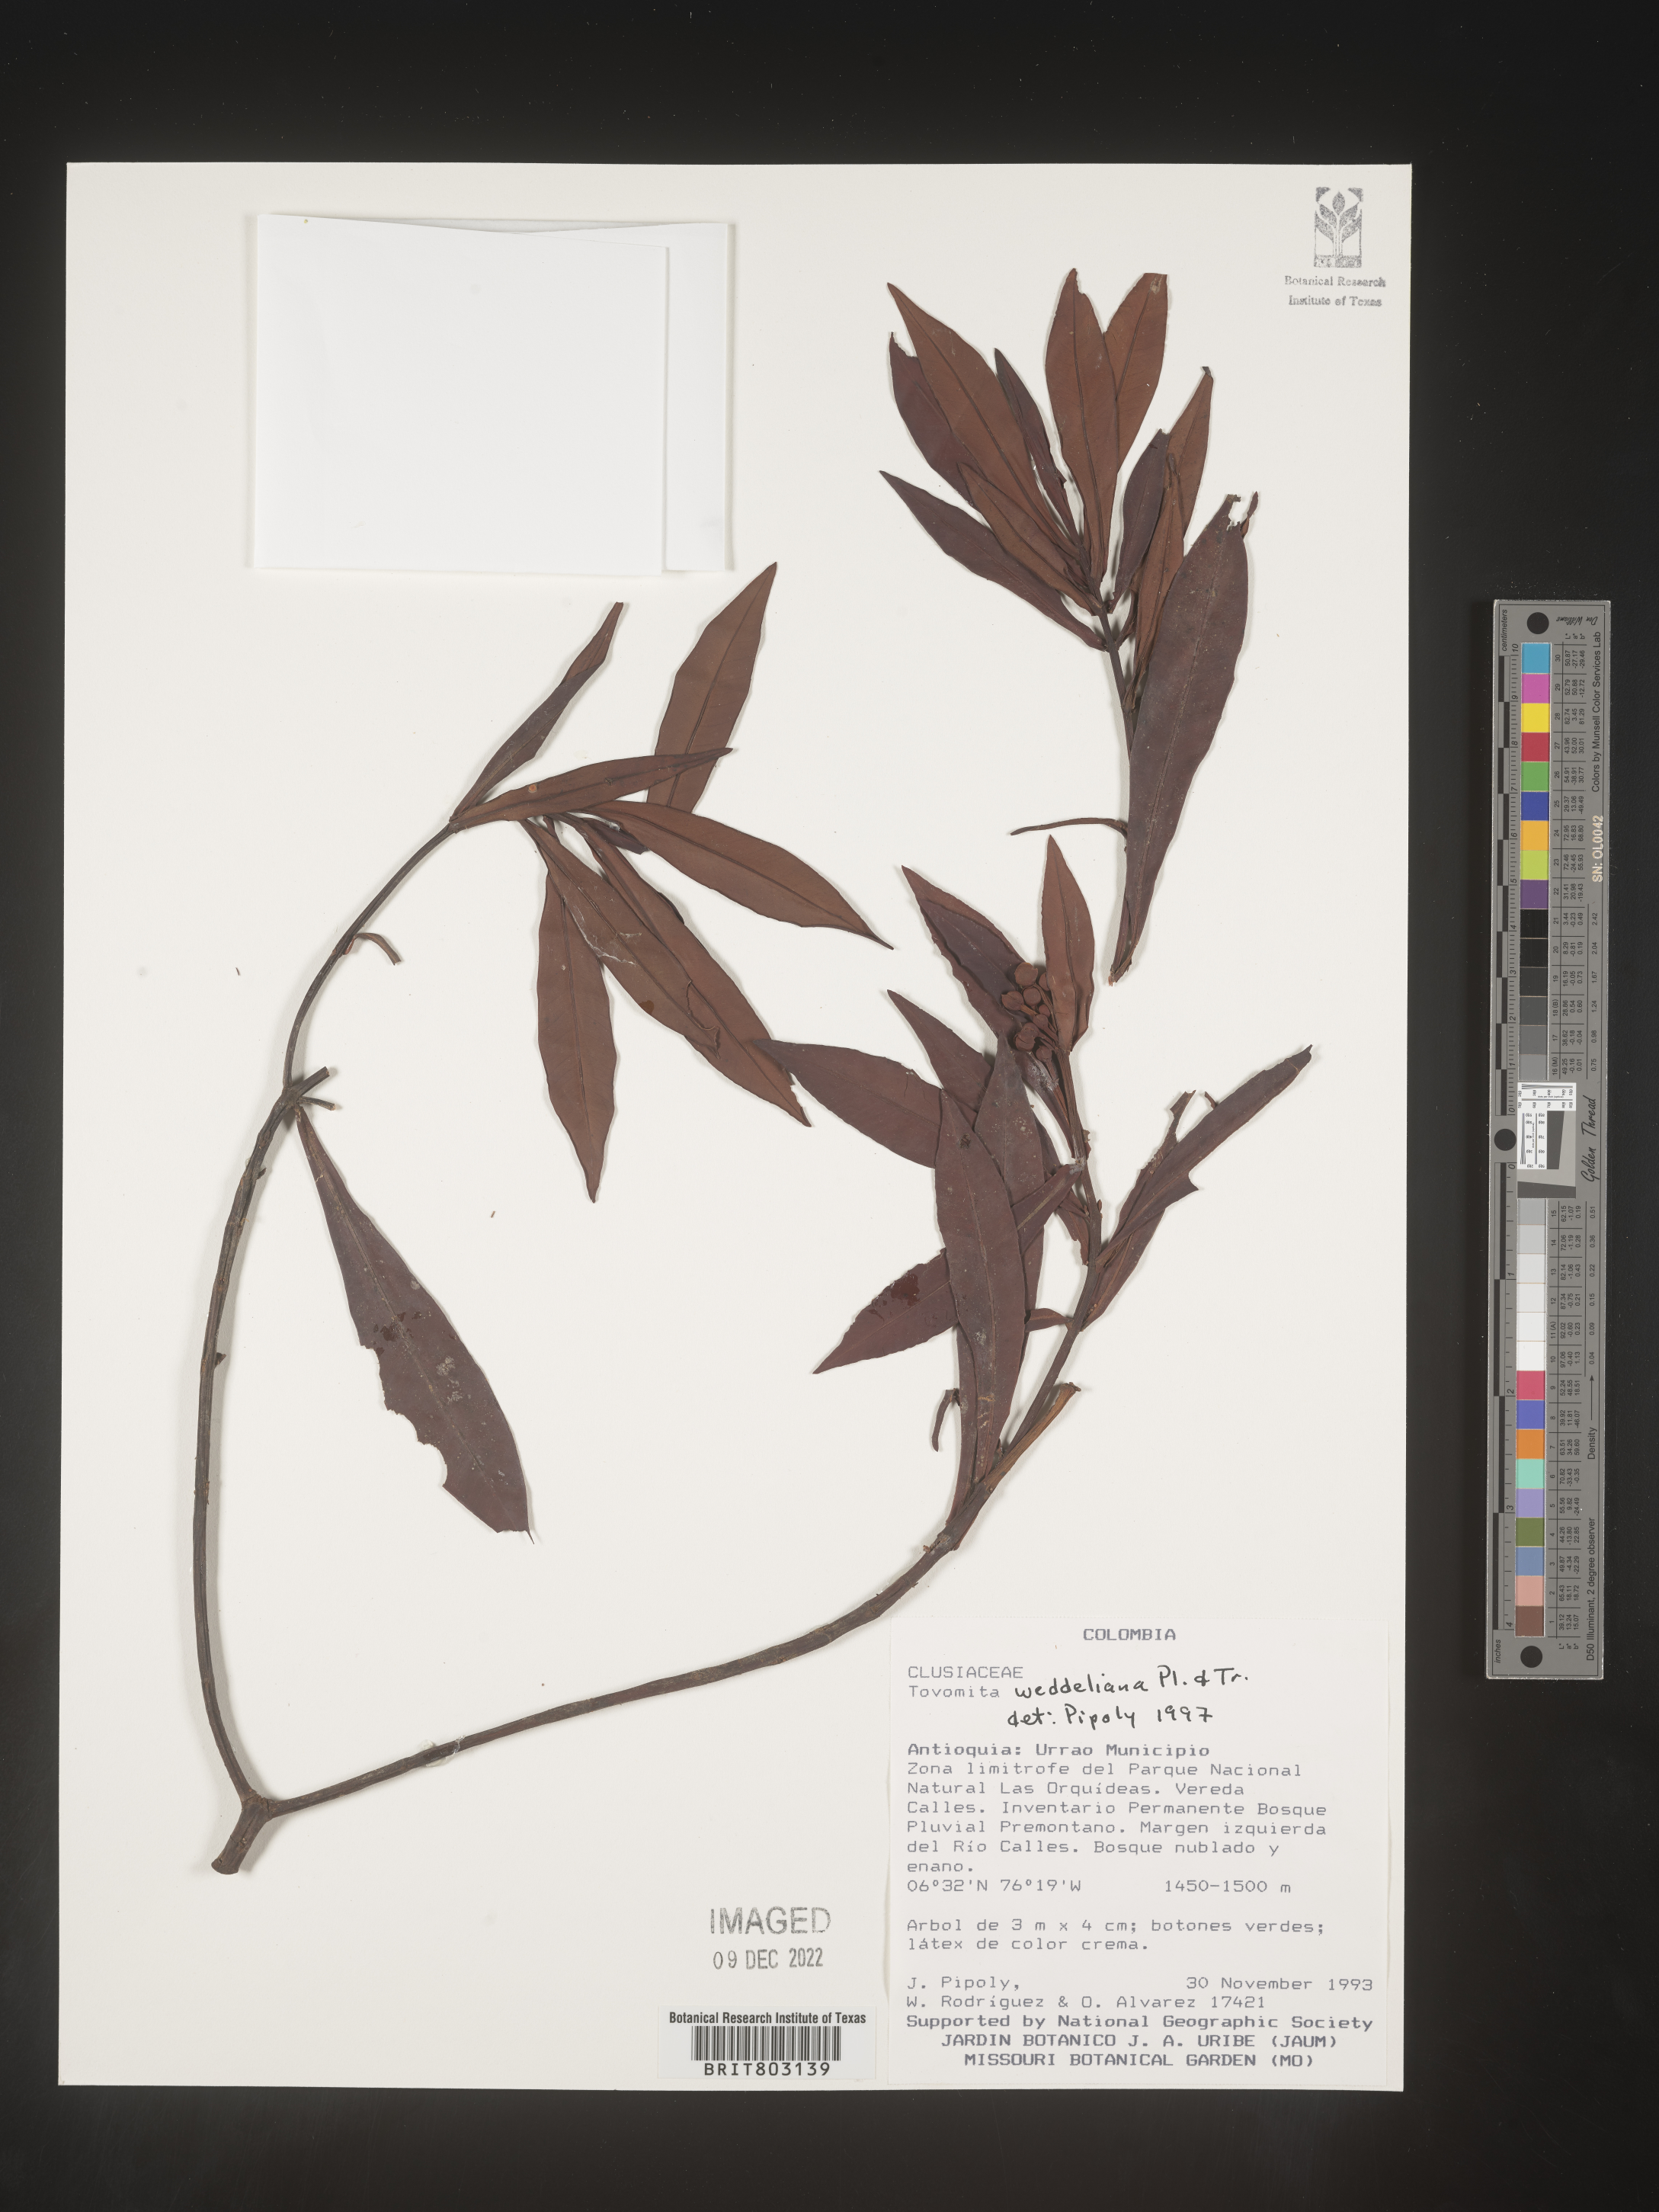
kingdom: Plantae
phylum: Tracheophyta
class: Magnoliopsida
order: Malpighiales
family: Clusiaceae
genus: Arawakia
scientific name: Arawakia weddelliana
